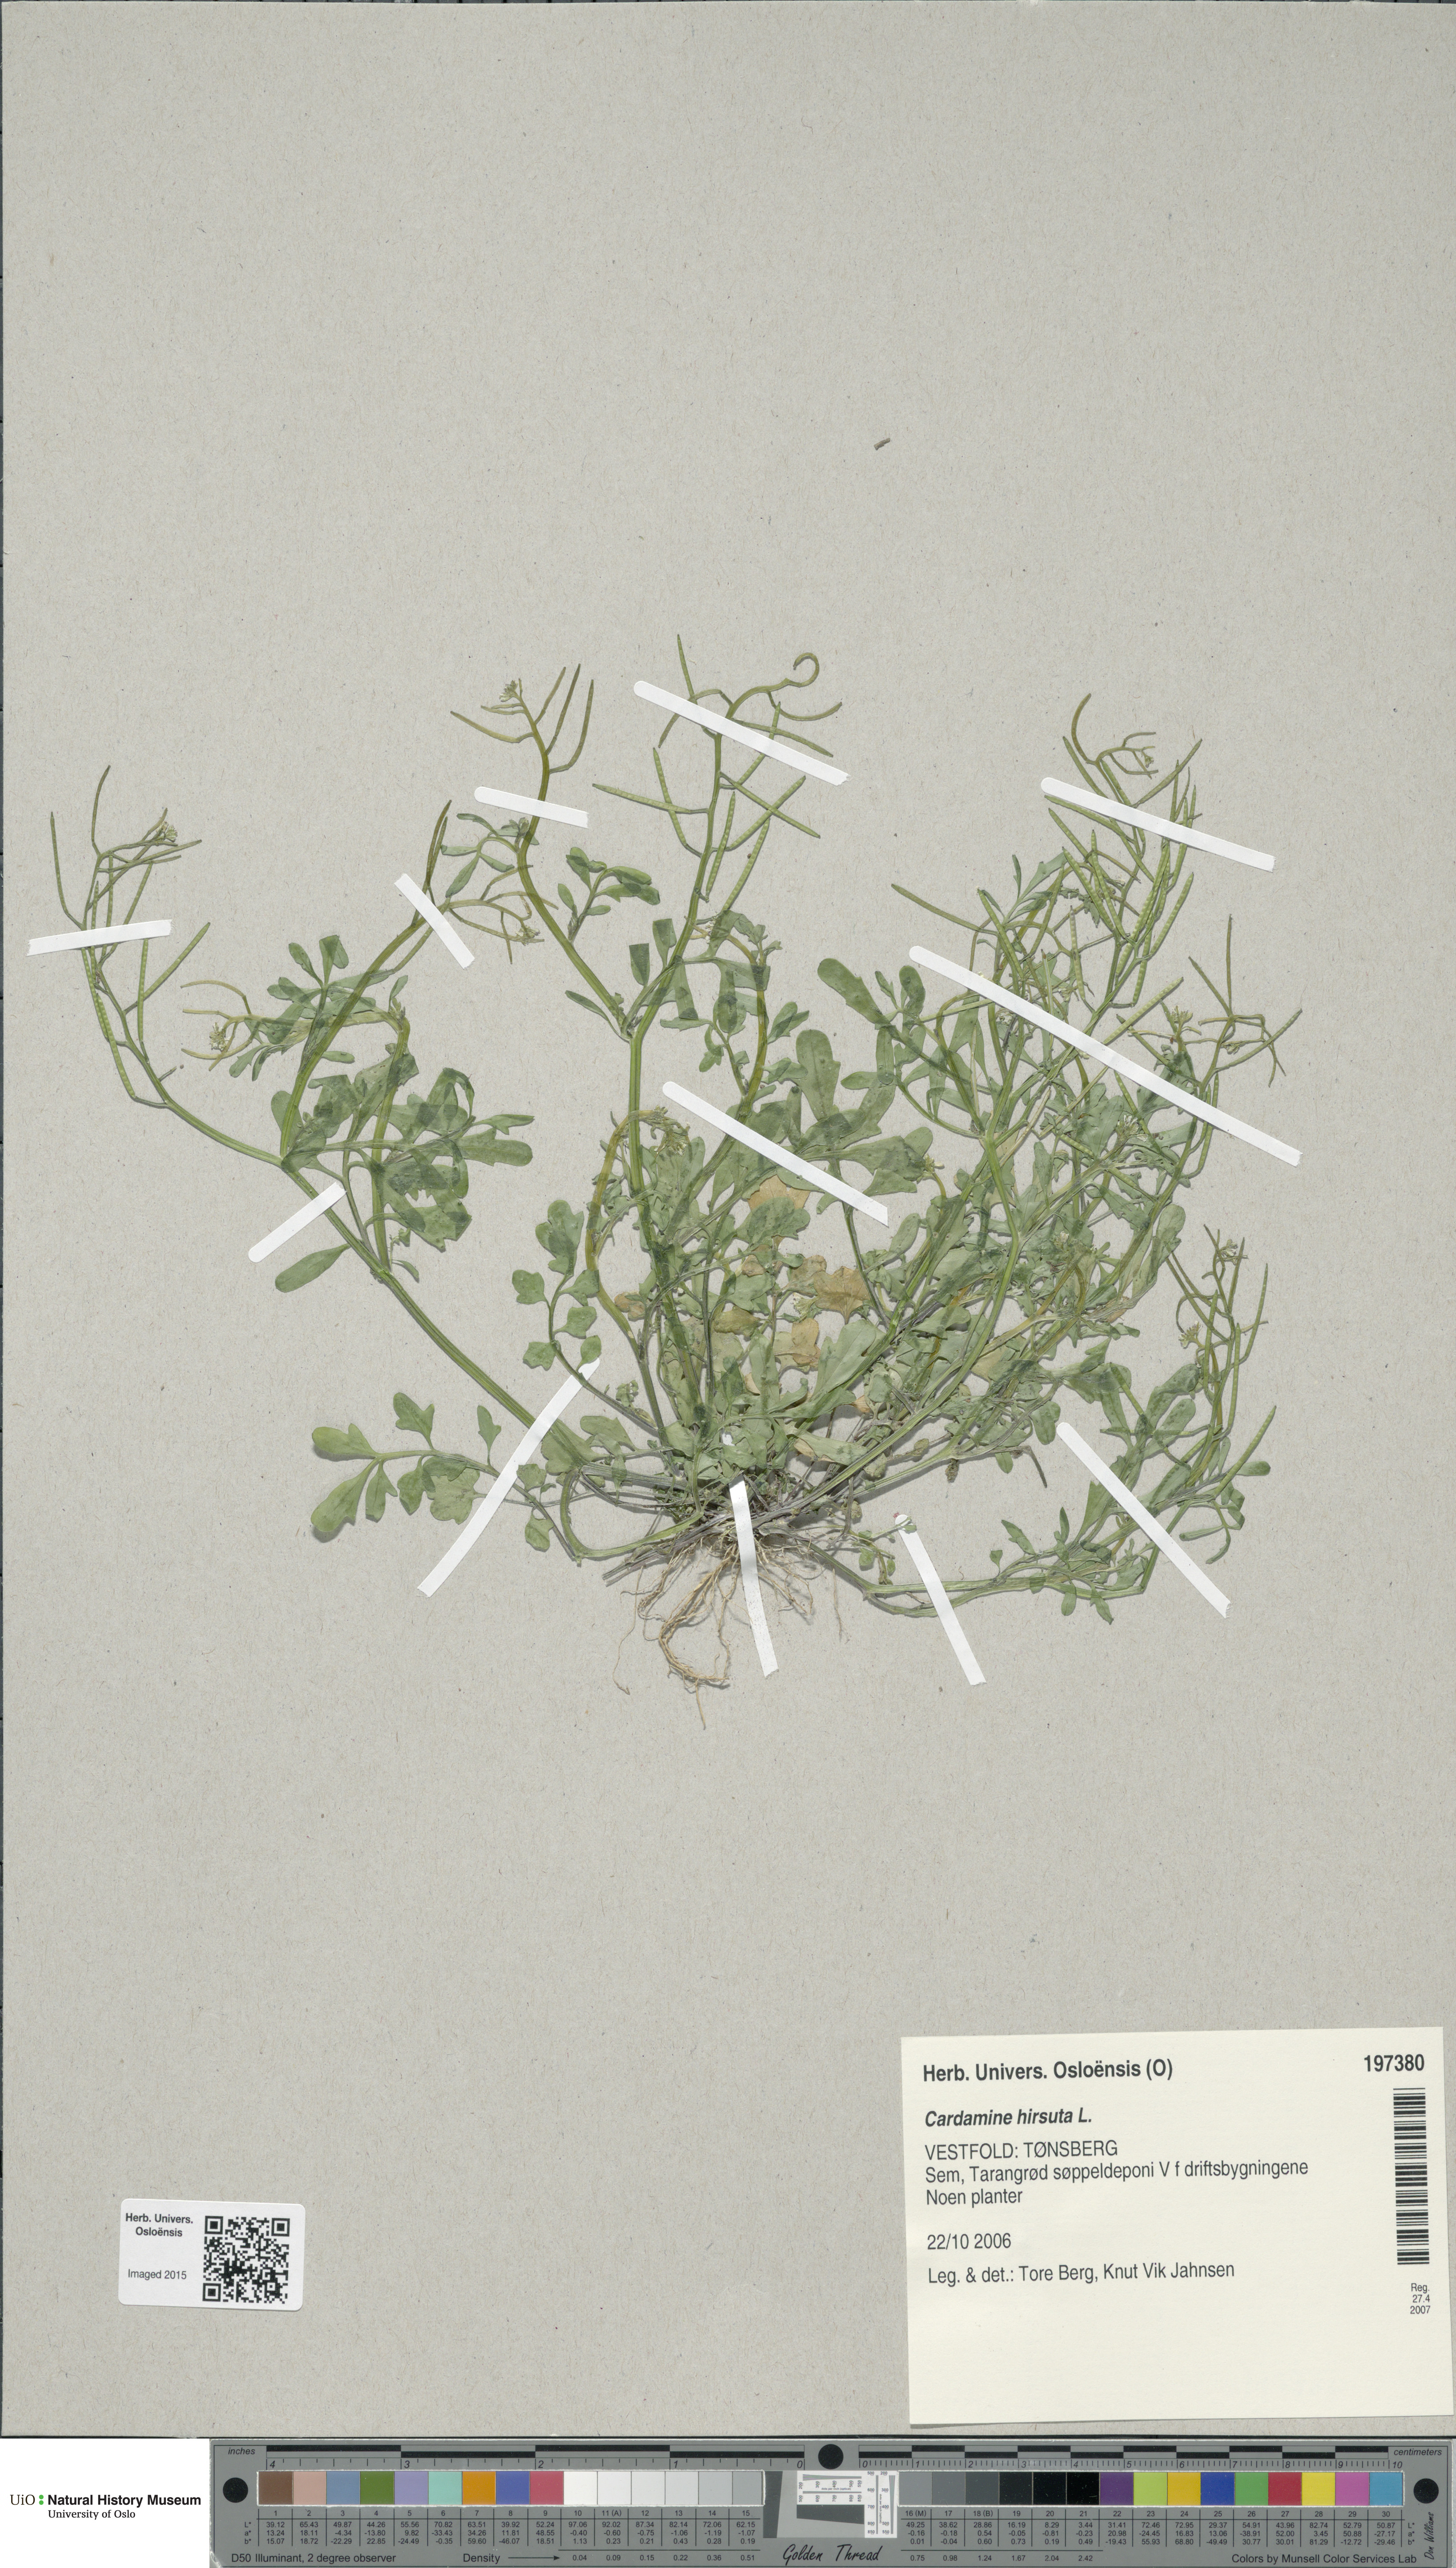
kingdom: Plantae
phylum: Tracheophyta
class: Magnoliopsida
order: Brassicales
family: Brassicaceae
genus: Cardamine
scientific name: Cardamine hirsuta
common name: Hairy bittercress
